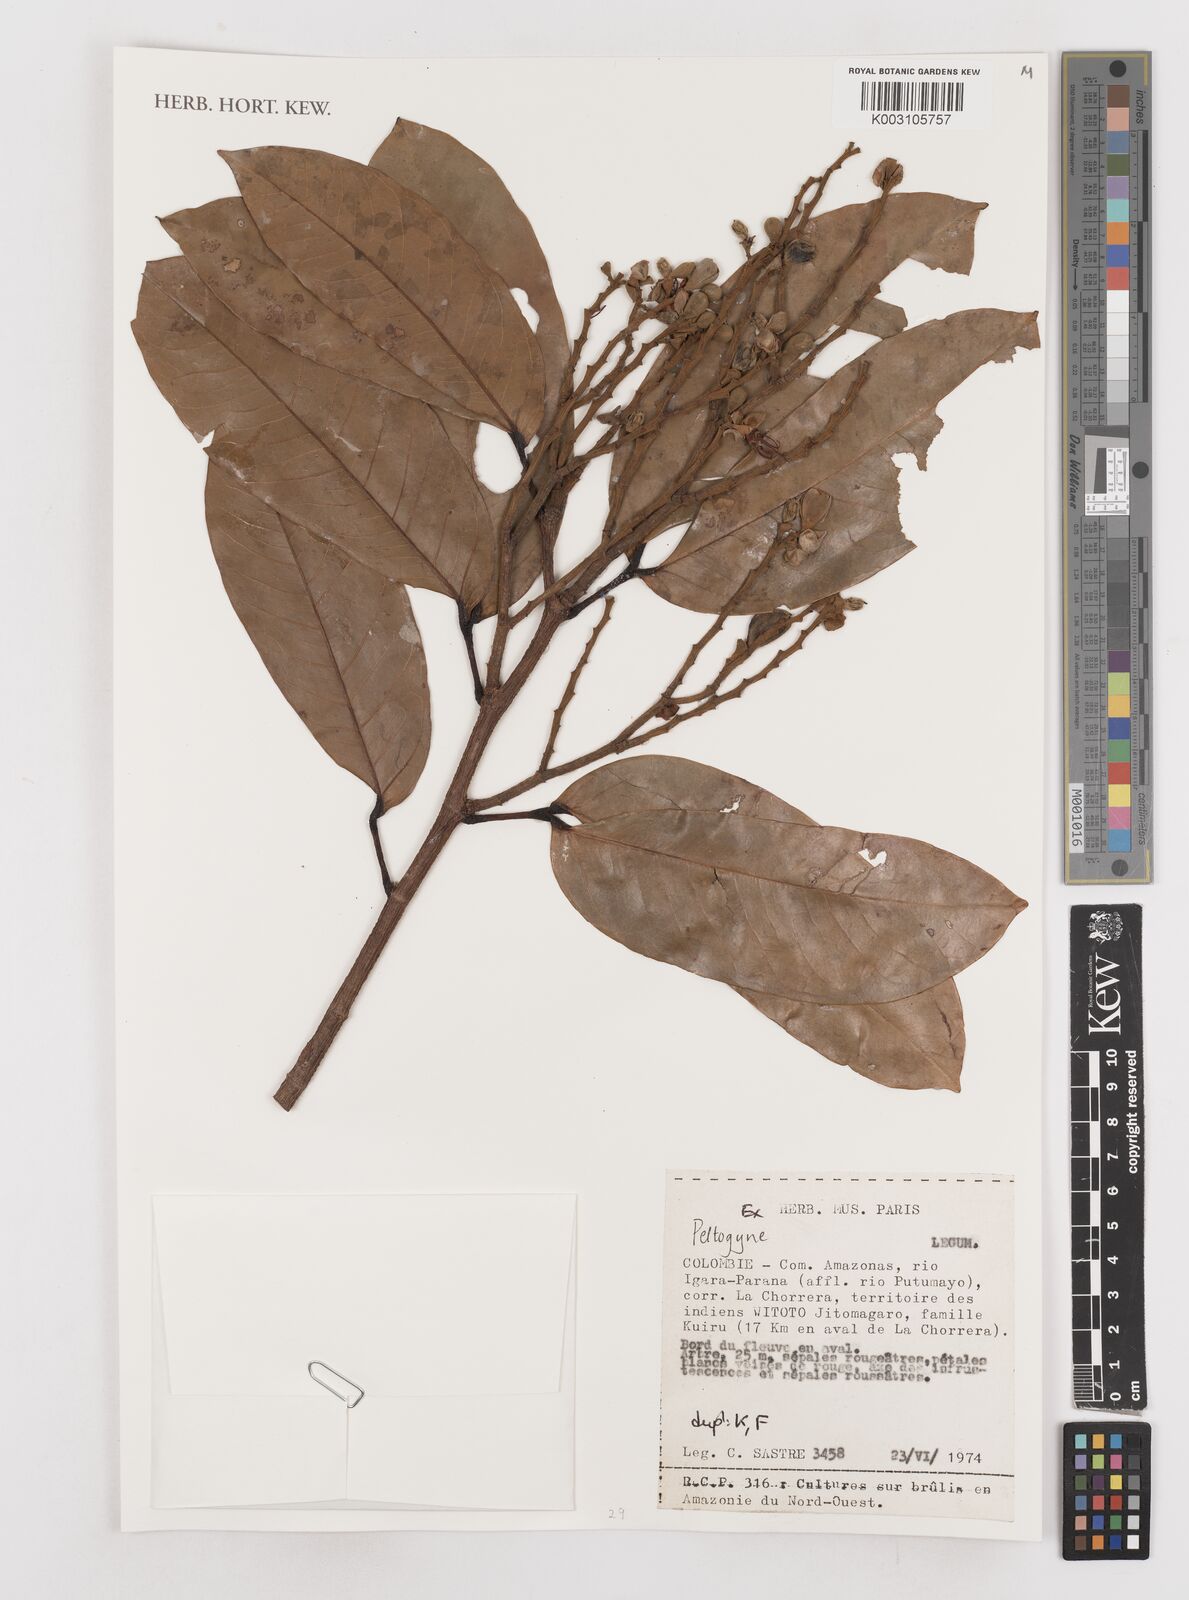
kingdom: Plantae
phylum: Tracheophyta
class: Magnoliopsida
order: Fabales
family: Fabaceae
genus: Peltogyne
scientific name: Peltogyne
